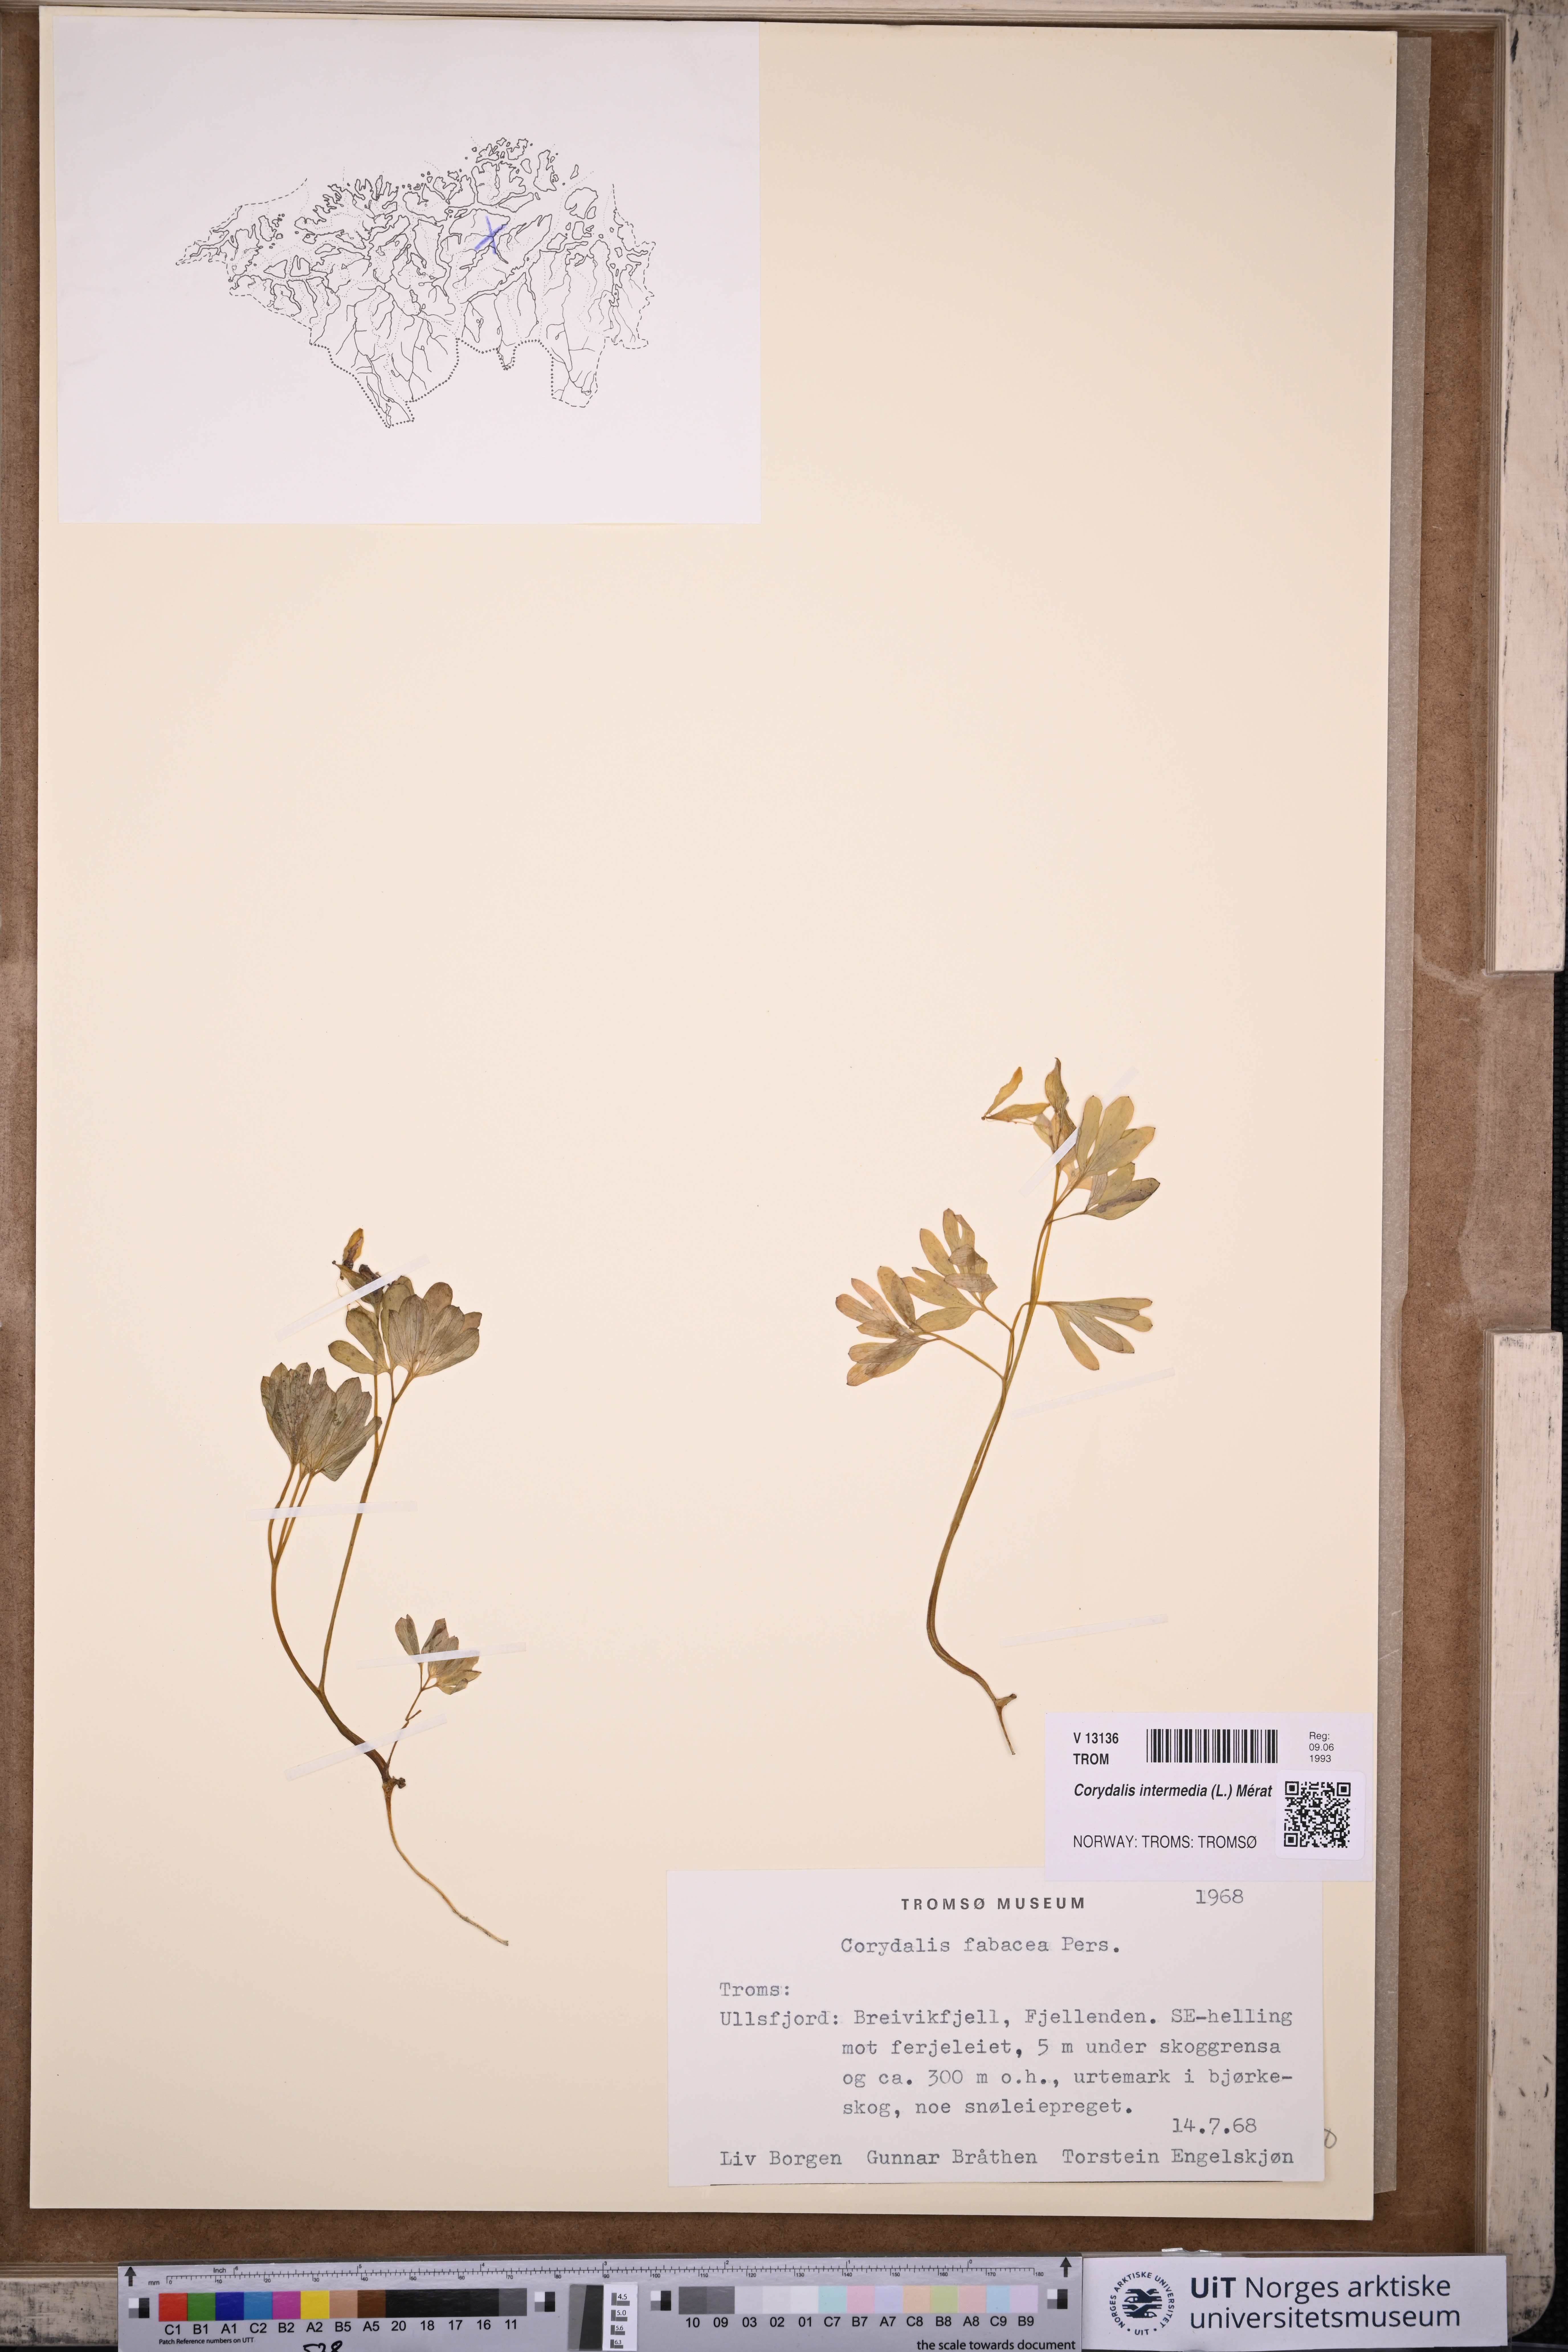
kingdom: Plantae
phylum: Tracheophyta
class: Magnoliopsida
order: Ranunculales
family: Papaveraceae
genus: Corydalis
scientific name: Corydalis intermedia
